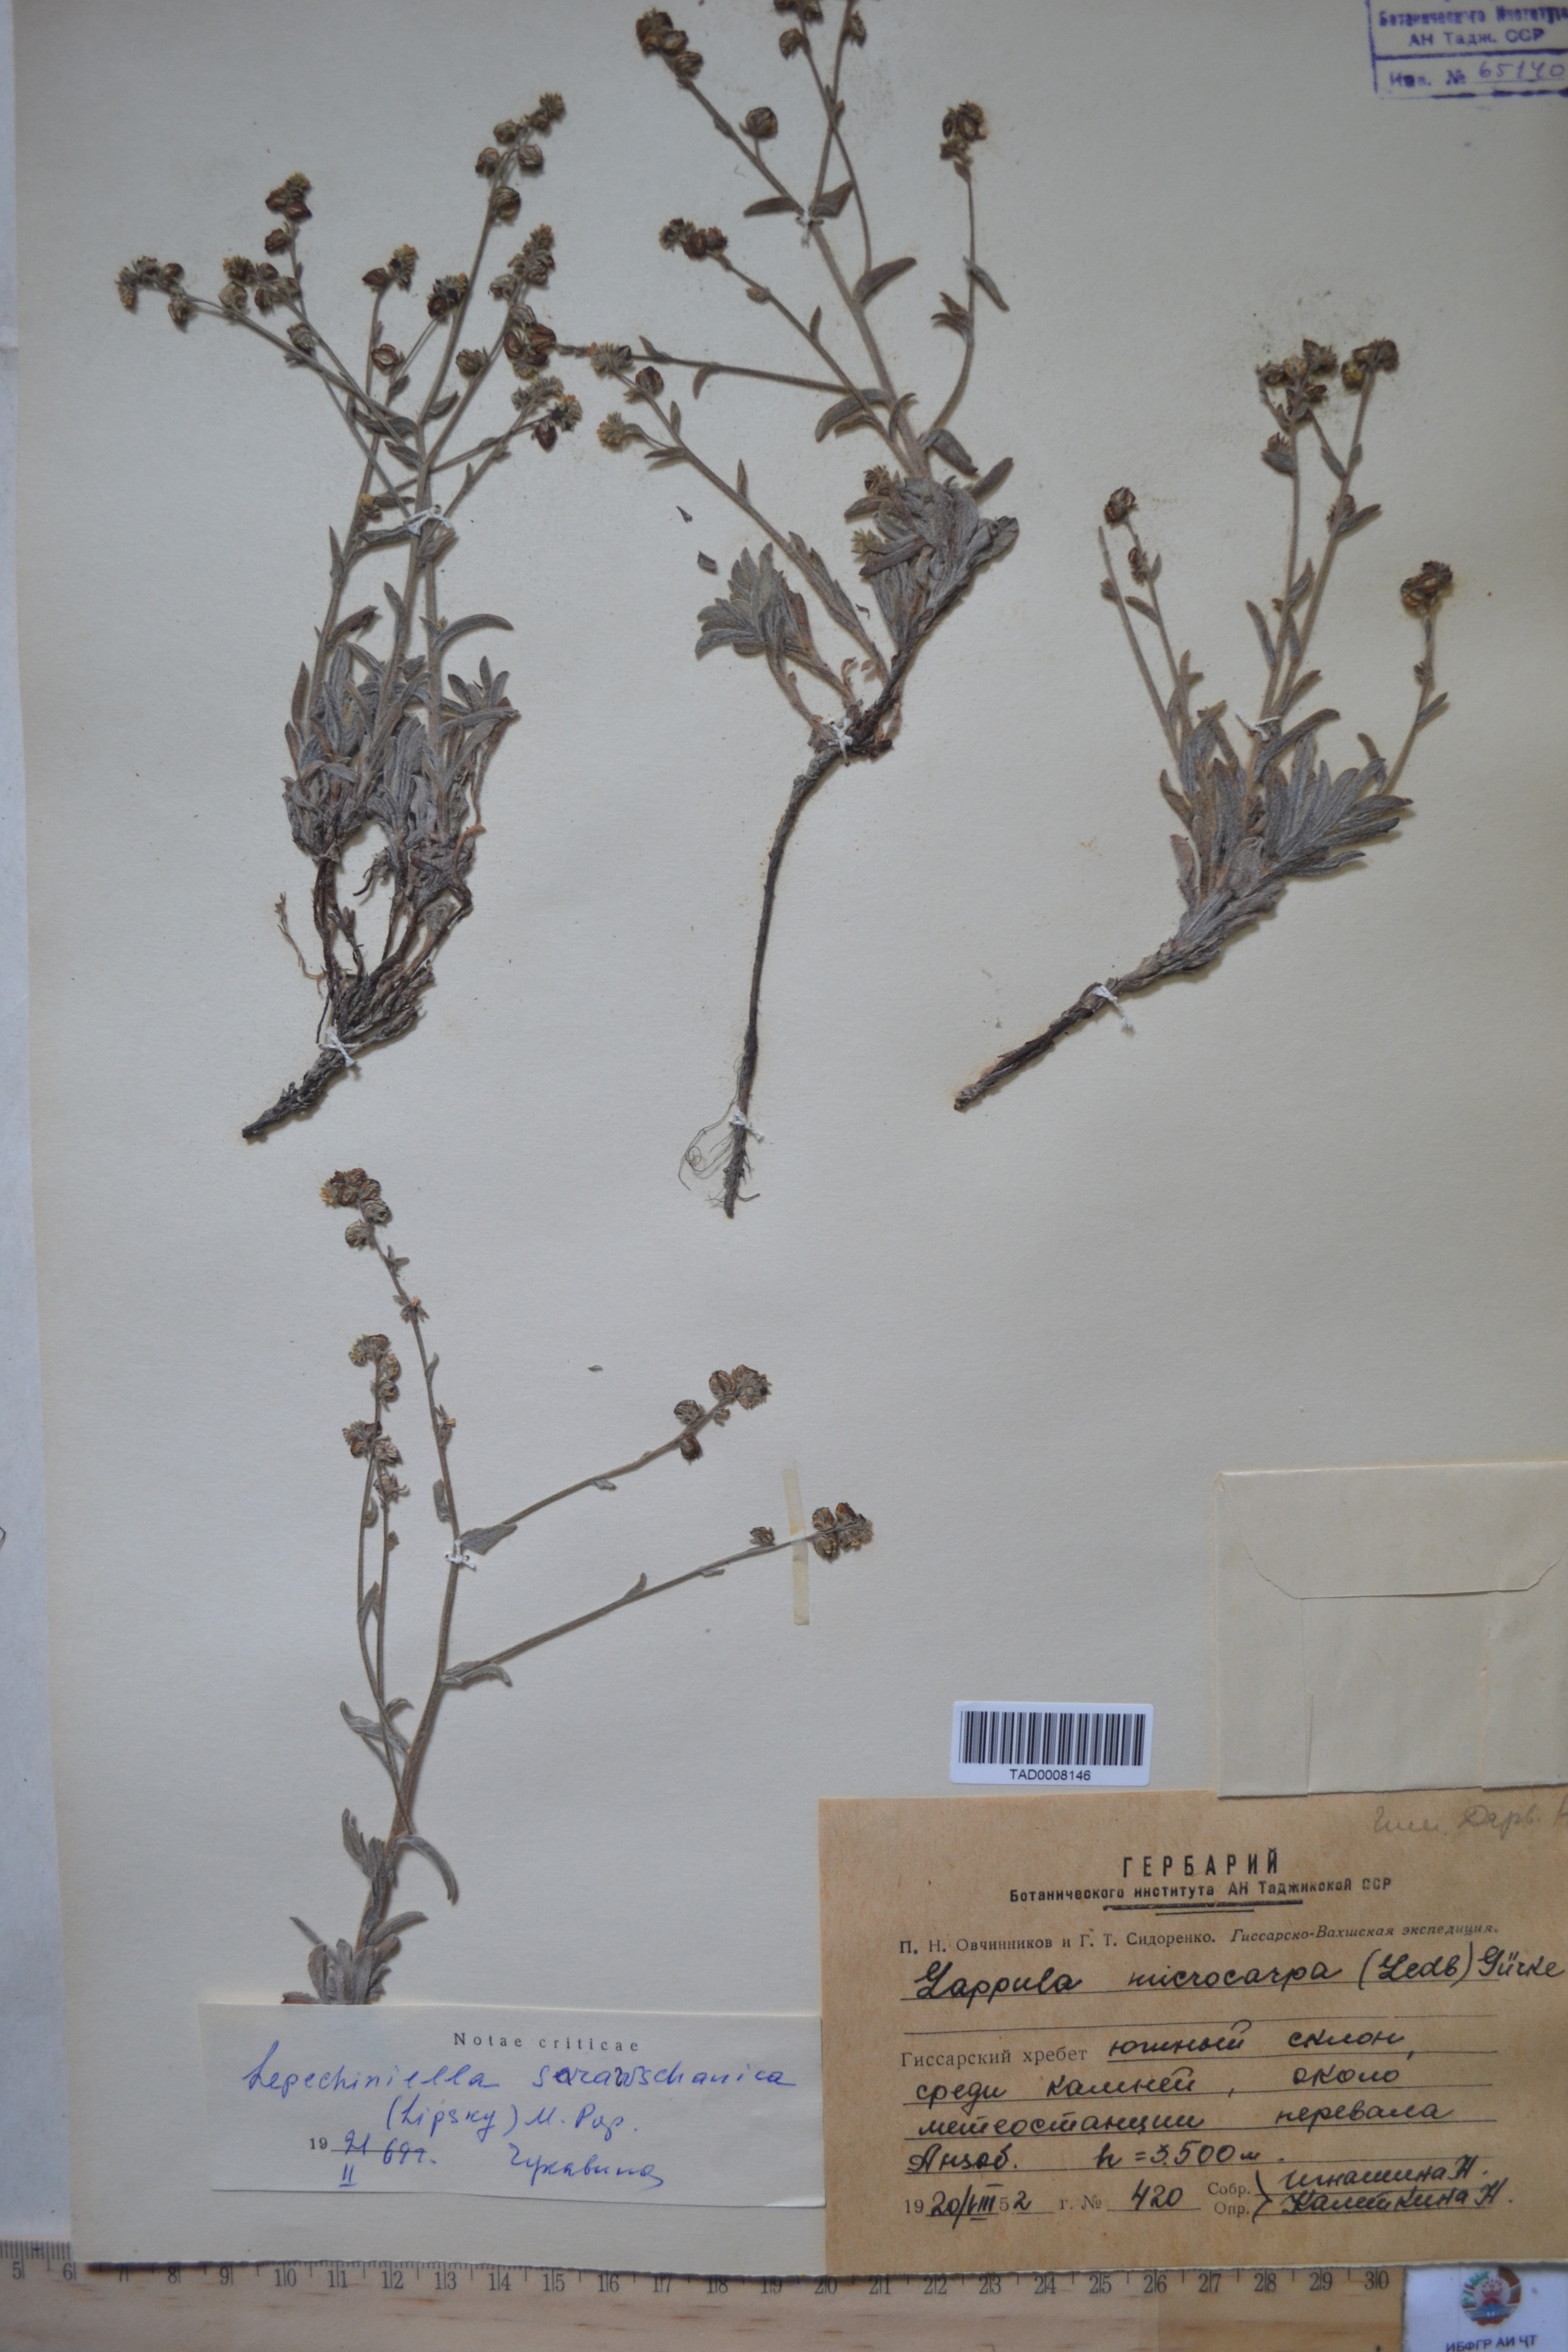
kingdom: Plantae
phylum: Tracheophyta
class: Magnoliopsida
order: Boraginales
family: Boraginaceae
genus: Lappula
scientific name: Lappula microcarpa
